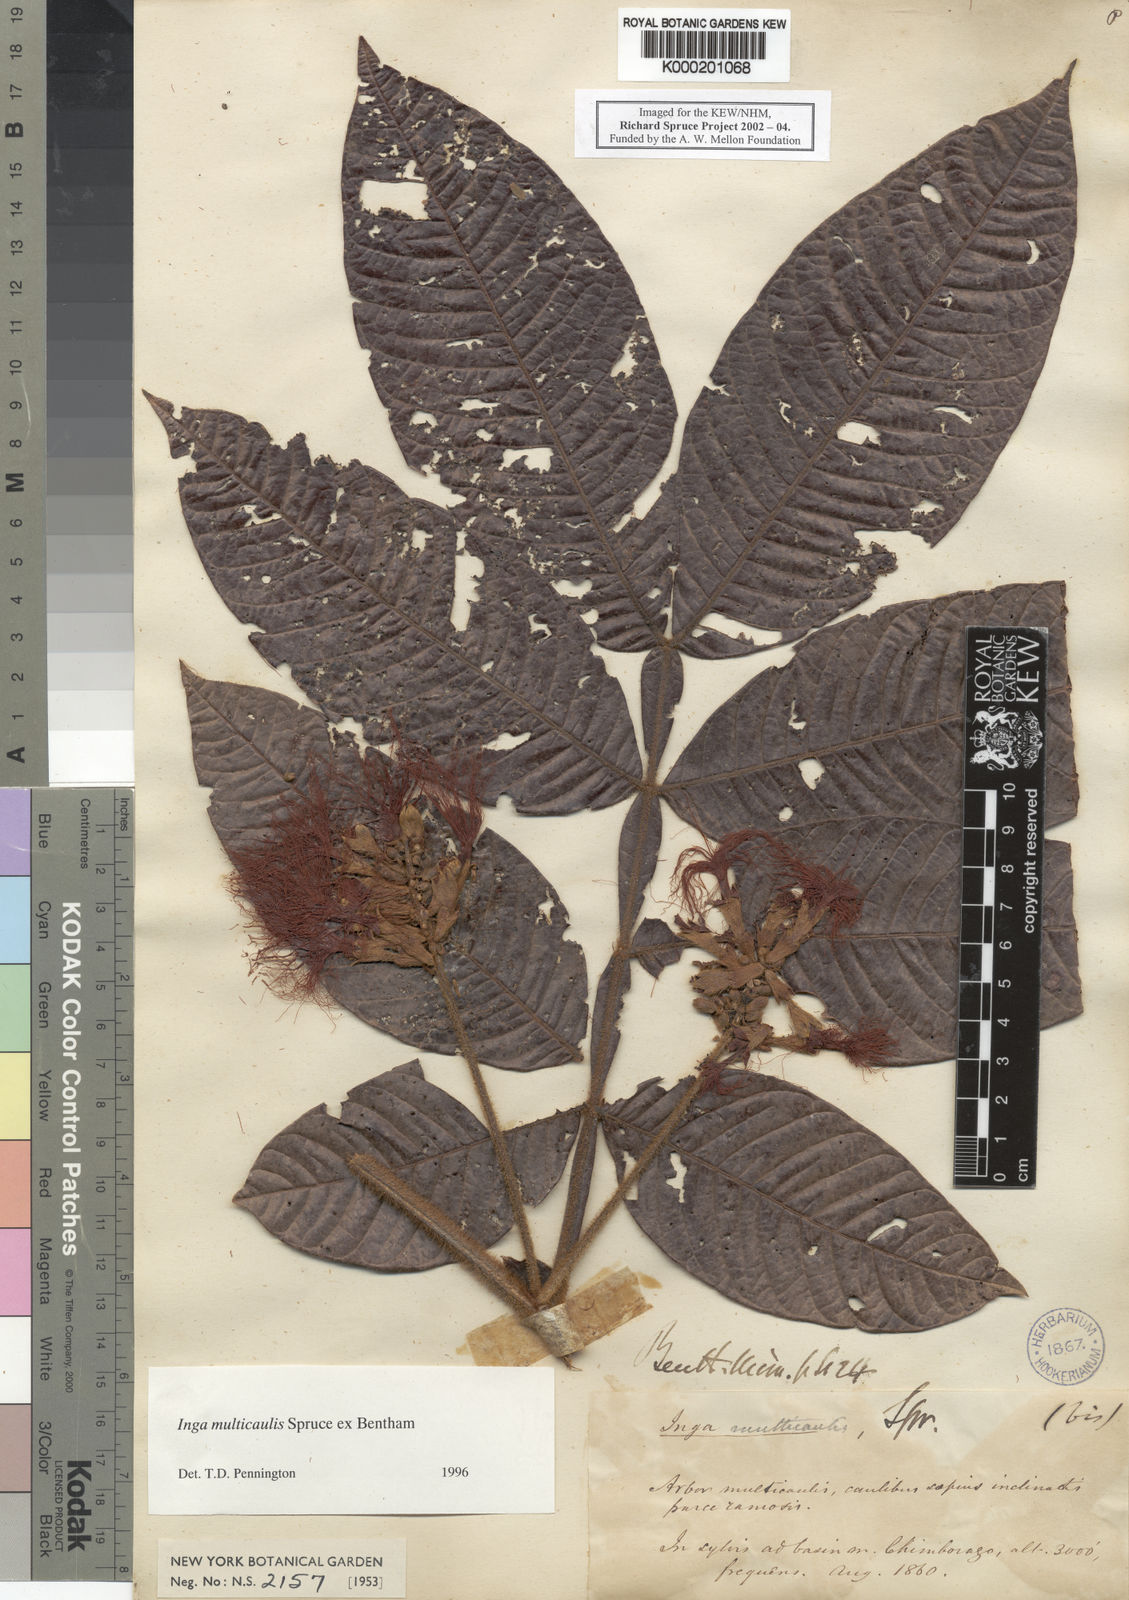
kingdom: Plantae
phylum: Tracheophyta
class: Magnoliopsida
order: Fabales
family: Fabaceae
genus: Inga
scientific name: Inga multicaulis
